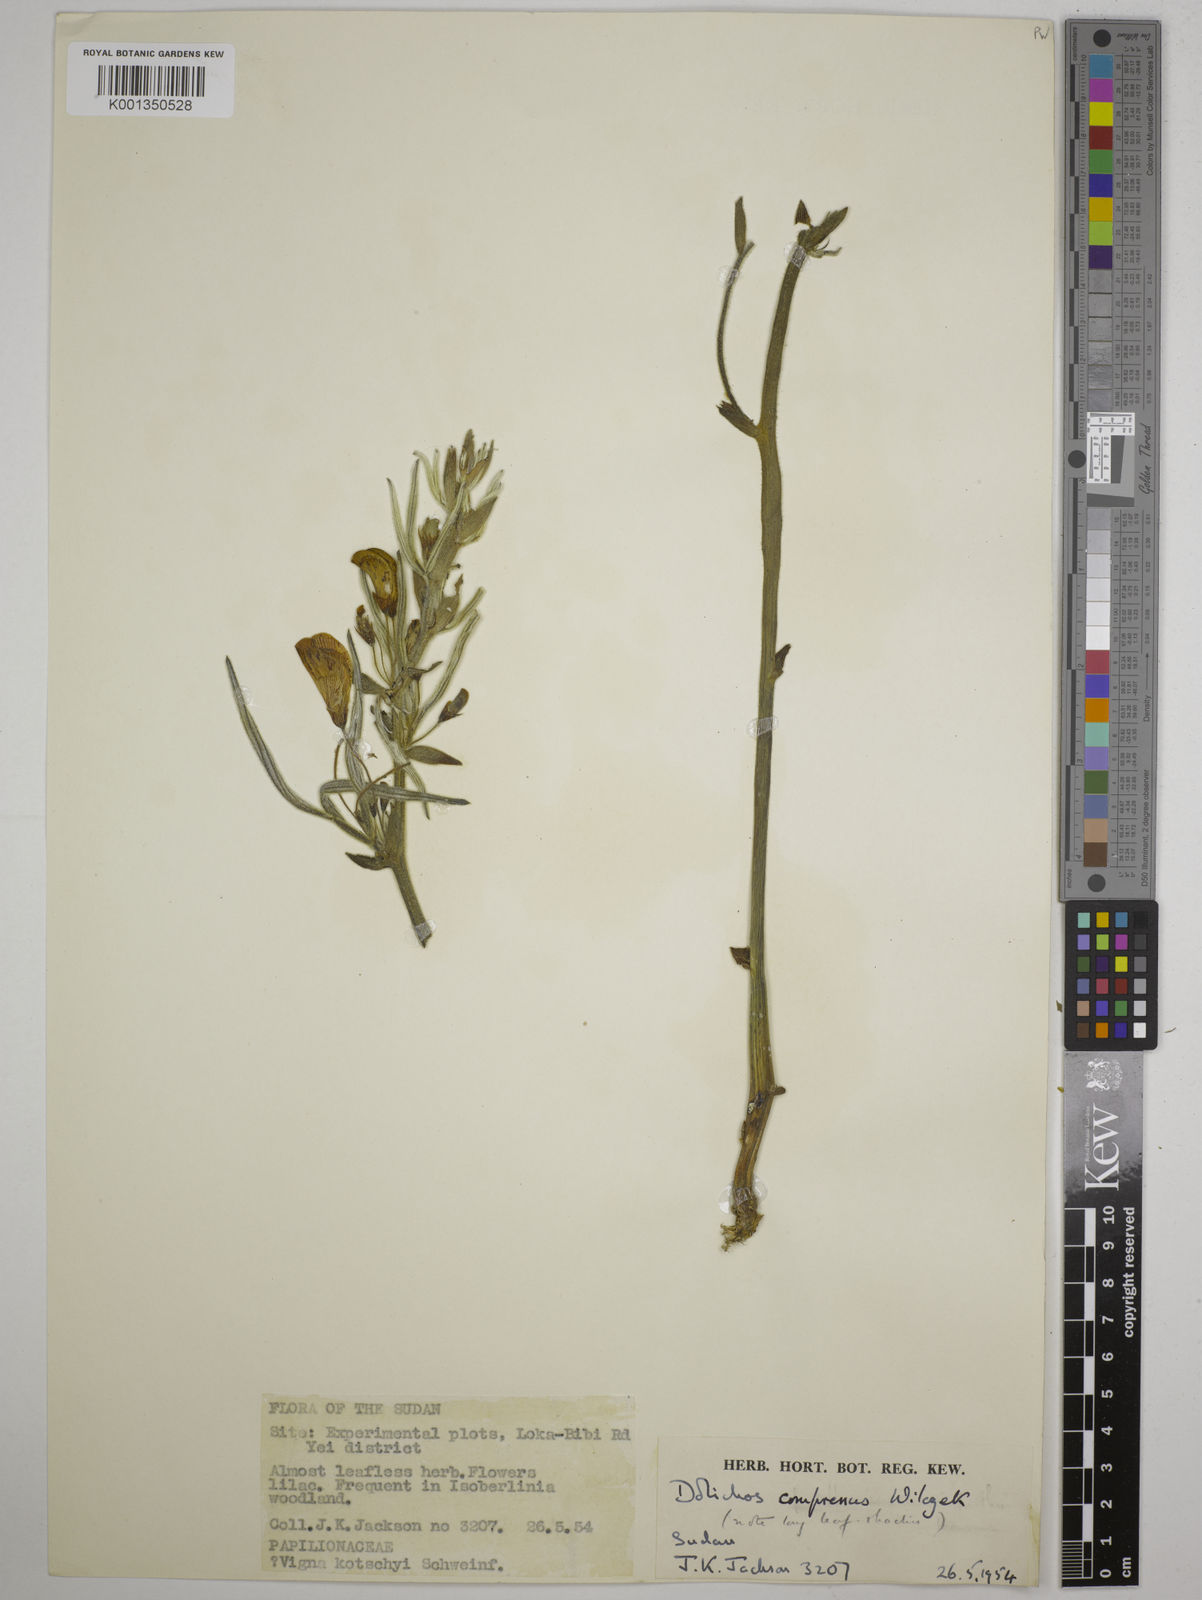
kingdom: Plantae
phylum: Tracheophyta
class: Magnoliopsida
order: Fabales
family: Fabaceae
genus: Dolichos
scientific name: Dolichos compressus
